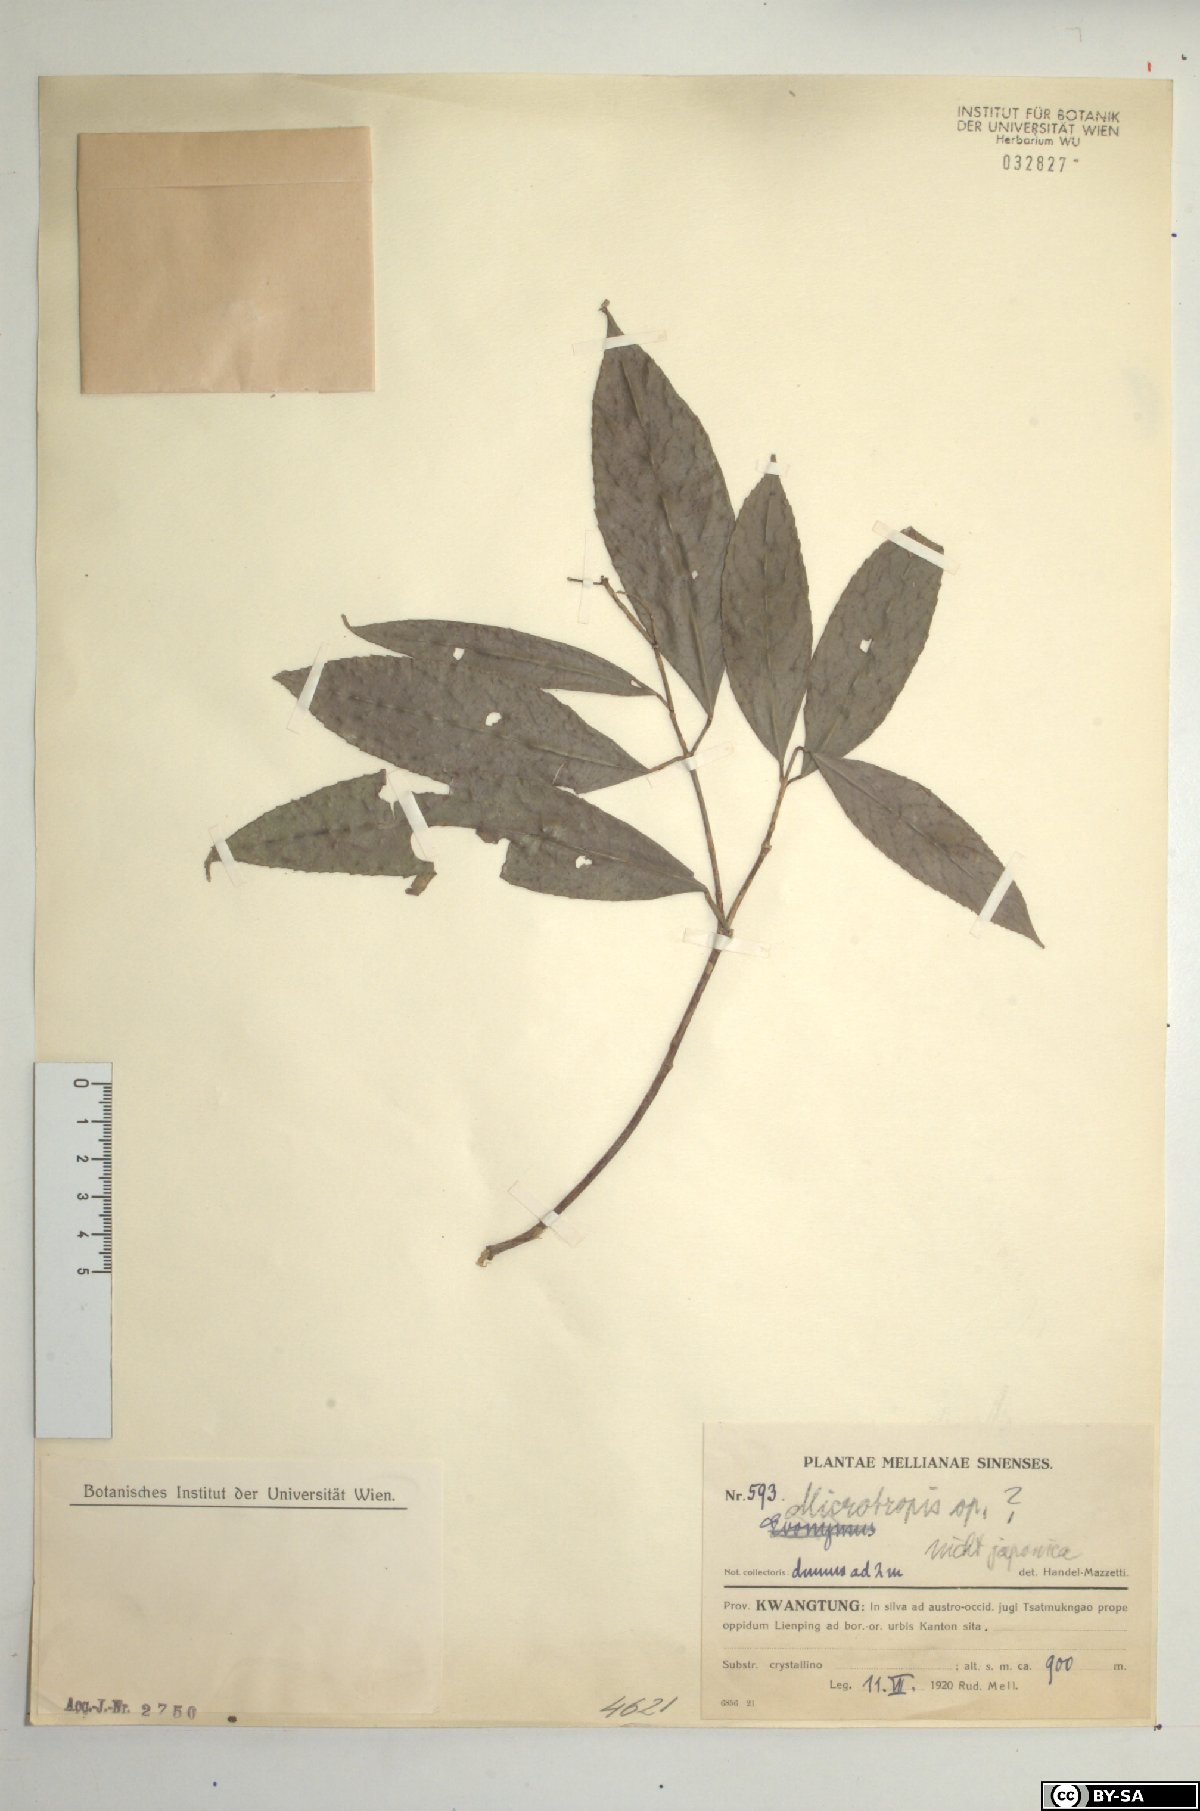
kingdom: Plantae
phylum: Tracheophyta
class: Magnoliopsida
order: Celastrales
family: Celastraceae
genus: Microtropis
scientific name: Microtropis
